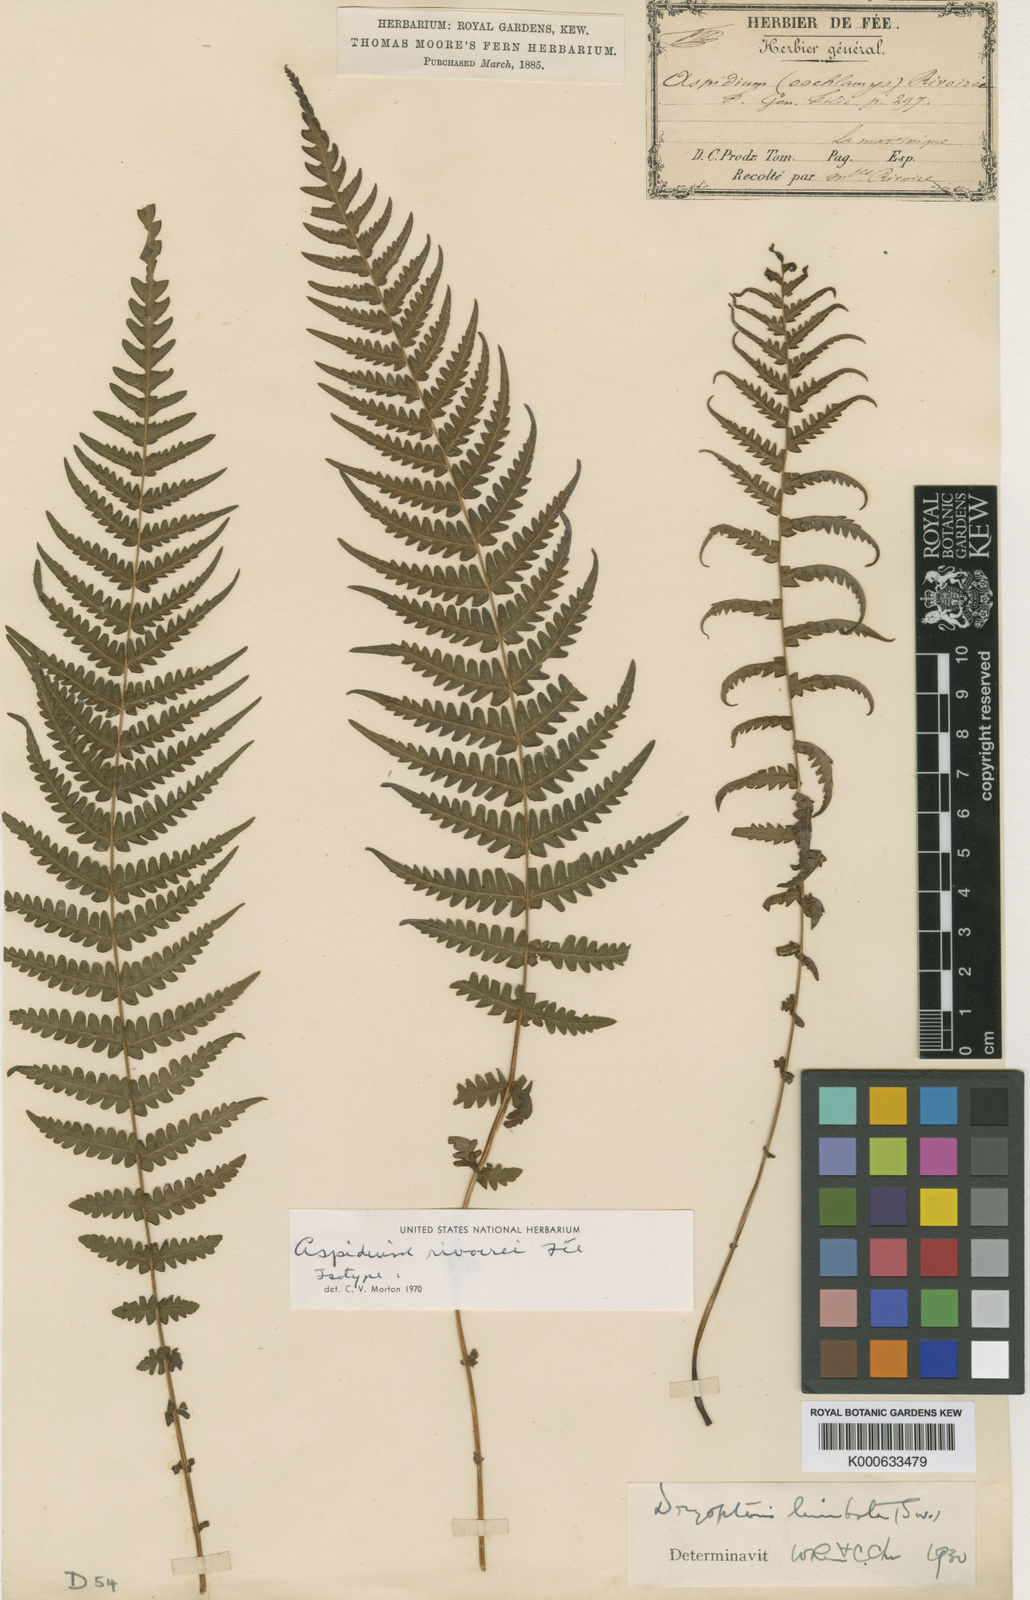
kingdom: Plantae
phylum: Tracheophyta
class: Polypodiopsida
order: Polypodiales
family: Thelypteridaceae
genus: Amauropelta
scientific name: Amauropelta limbata
